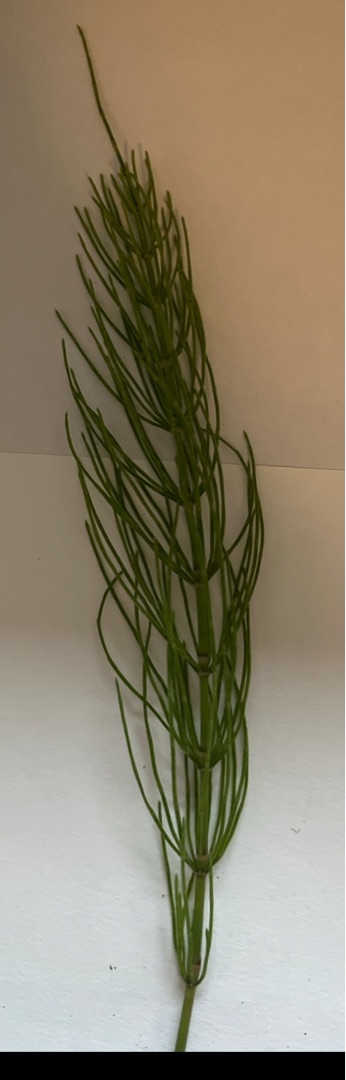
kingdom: Plantae
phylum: Tracheophyta
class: Polypodiopsida
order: Equisetales
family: Equisetaceae
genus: Equisetum
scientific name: Equisetum
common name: Padderokslægten
